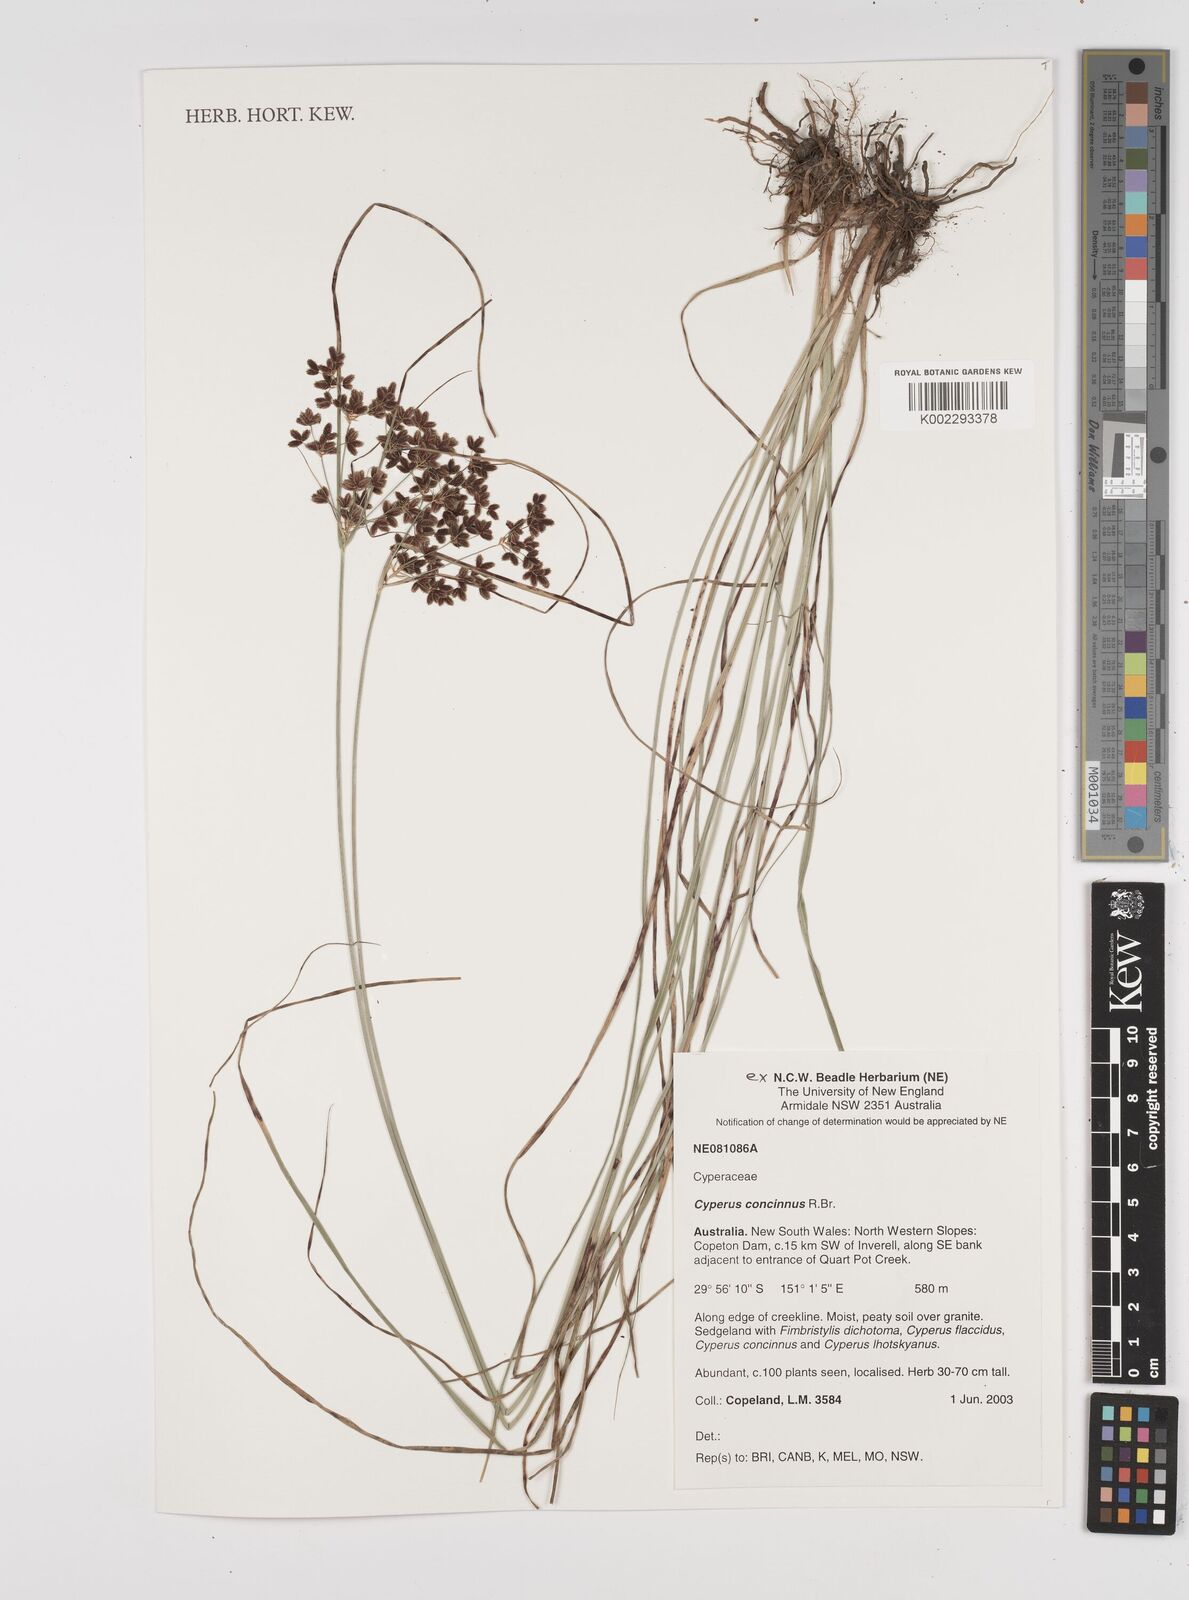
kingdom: Plantae
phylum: Tracheophyta
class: Liliopsida
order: Poales
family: Cyperaceae
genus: Cyperus
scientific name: Cyperus concinnus
